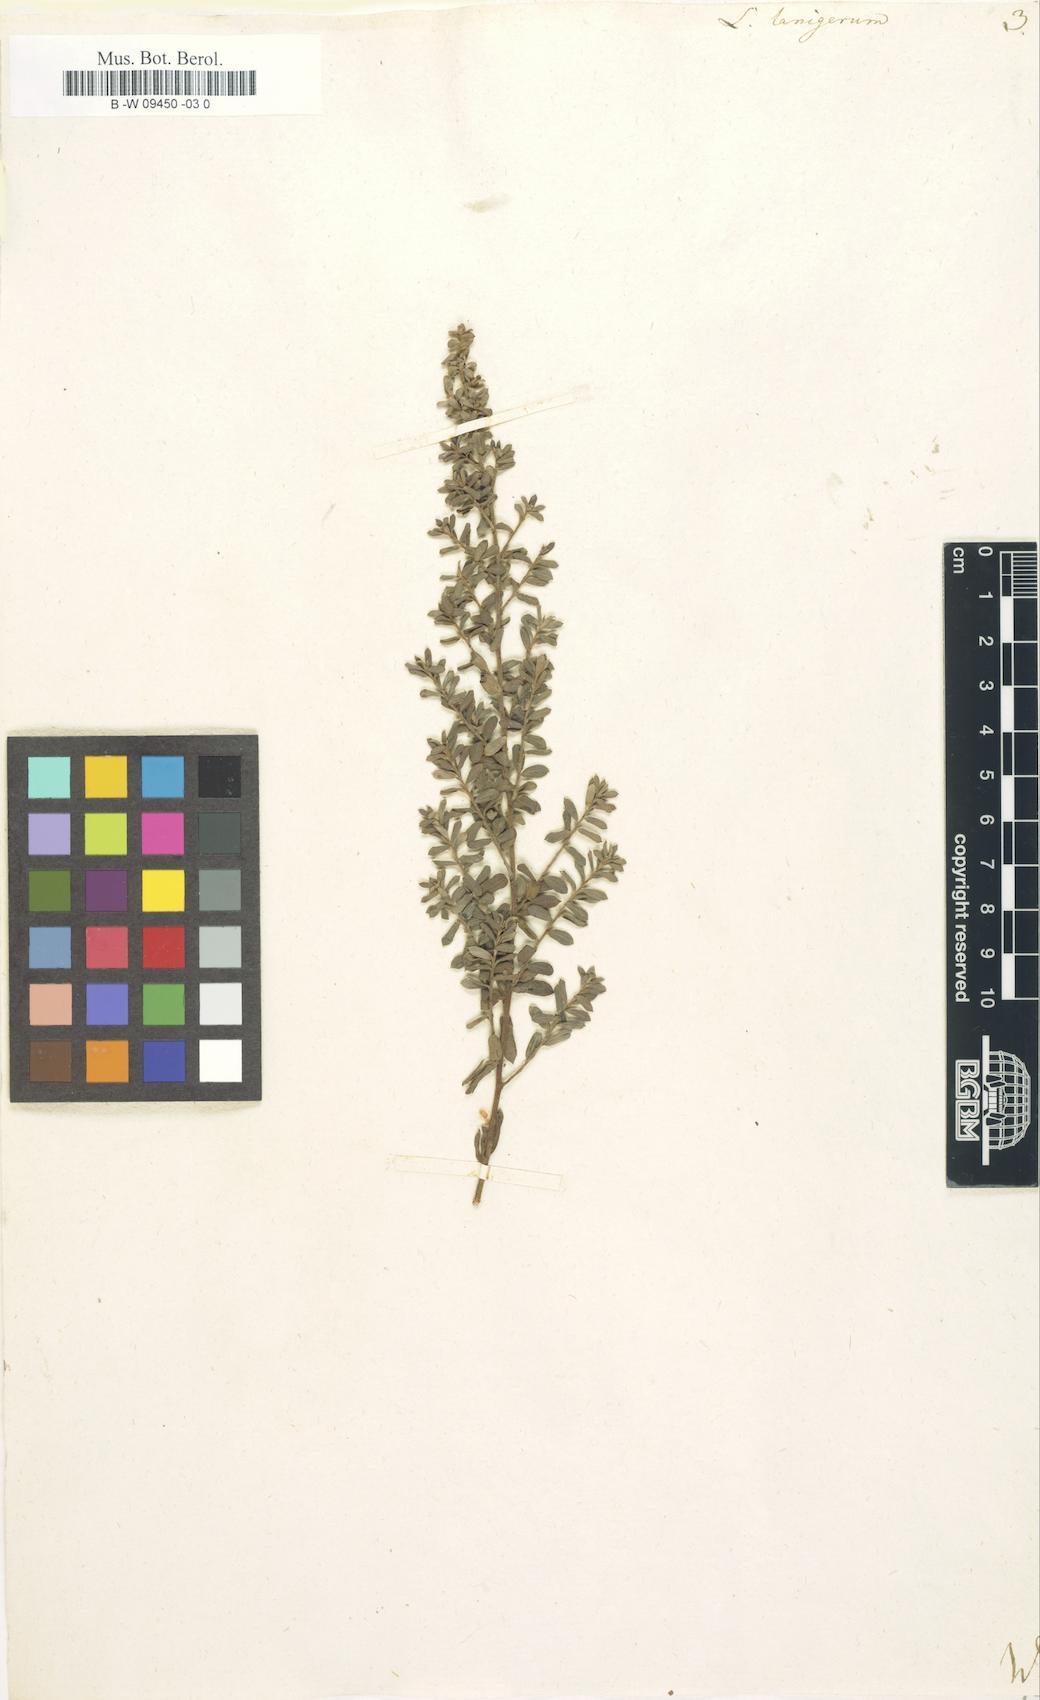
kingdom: Plantae
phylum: Tracheophyta
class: Magnoliopsida
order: Myrtales
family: Myrtaceae
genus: Leptospermum
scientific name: Leptospermum lanigerum
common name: Woolly tea-tree
